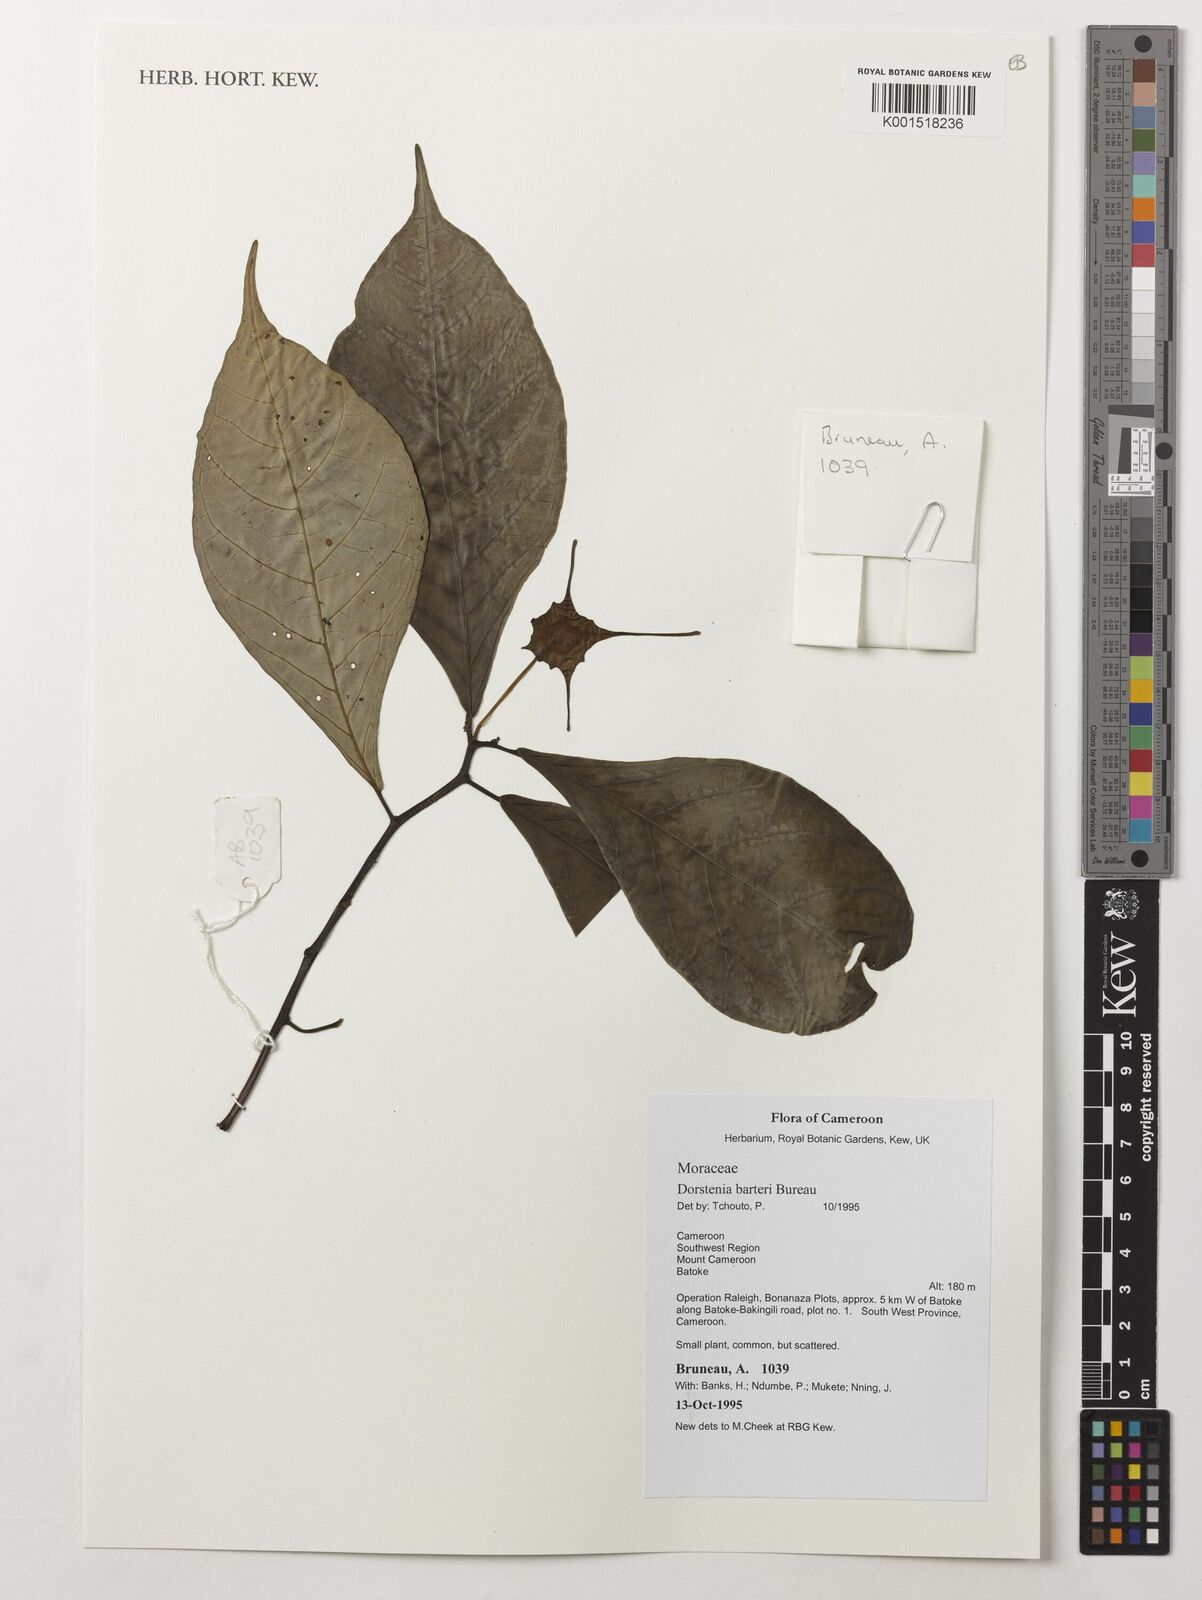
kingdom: Plantae
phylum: Tracheophyta
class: Magnoliopsida
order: Rosales
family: Moraceae
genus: Dorstenia
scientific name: Dorstenia barteri
